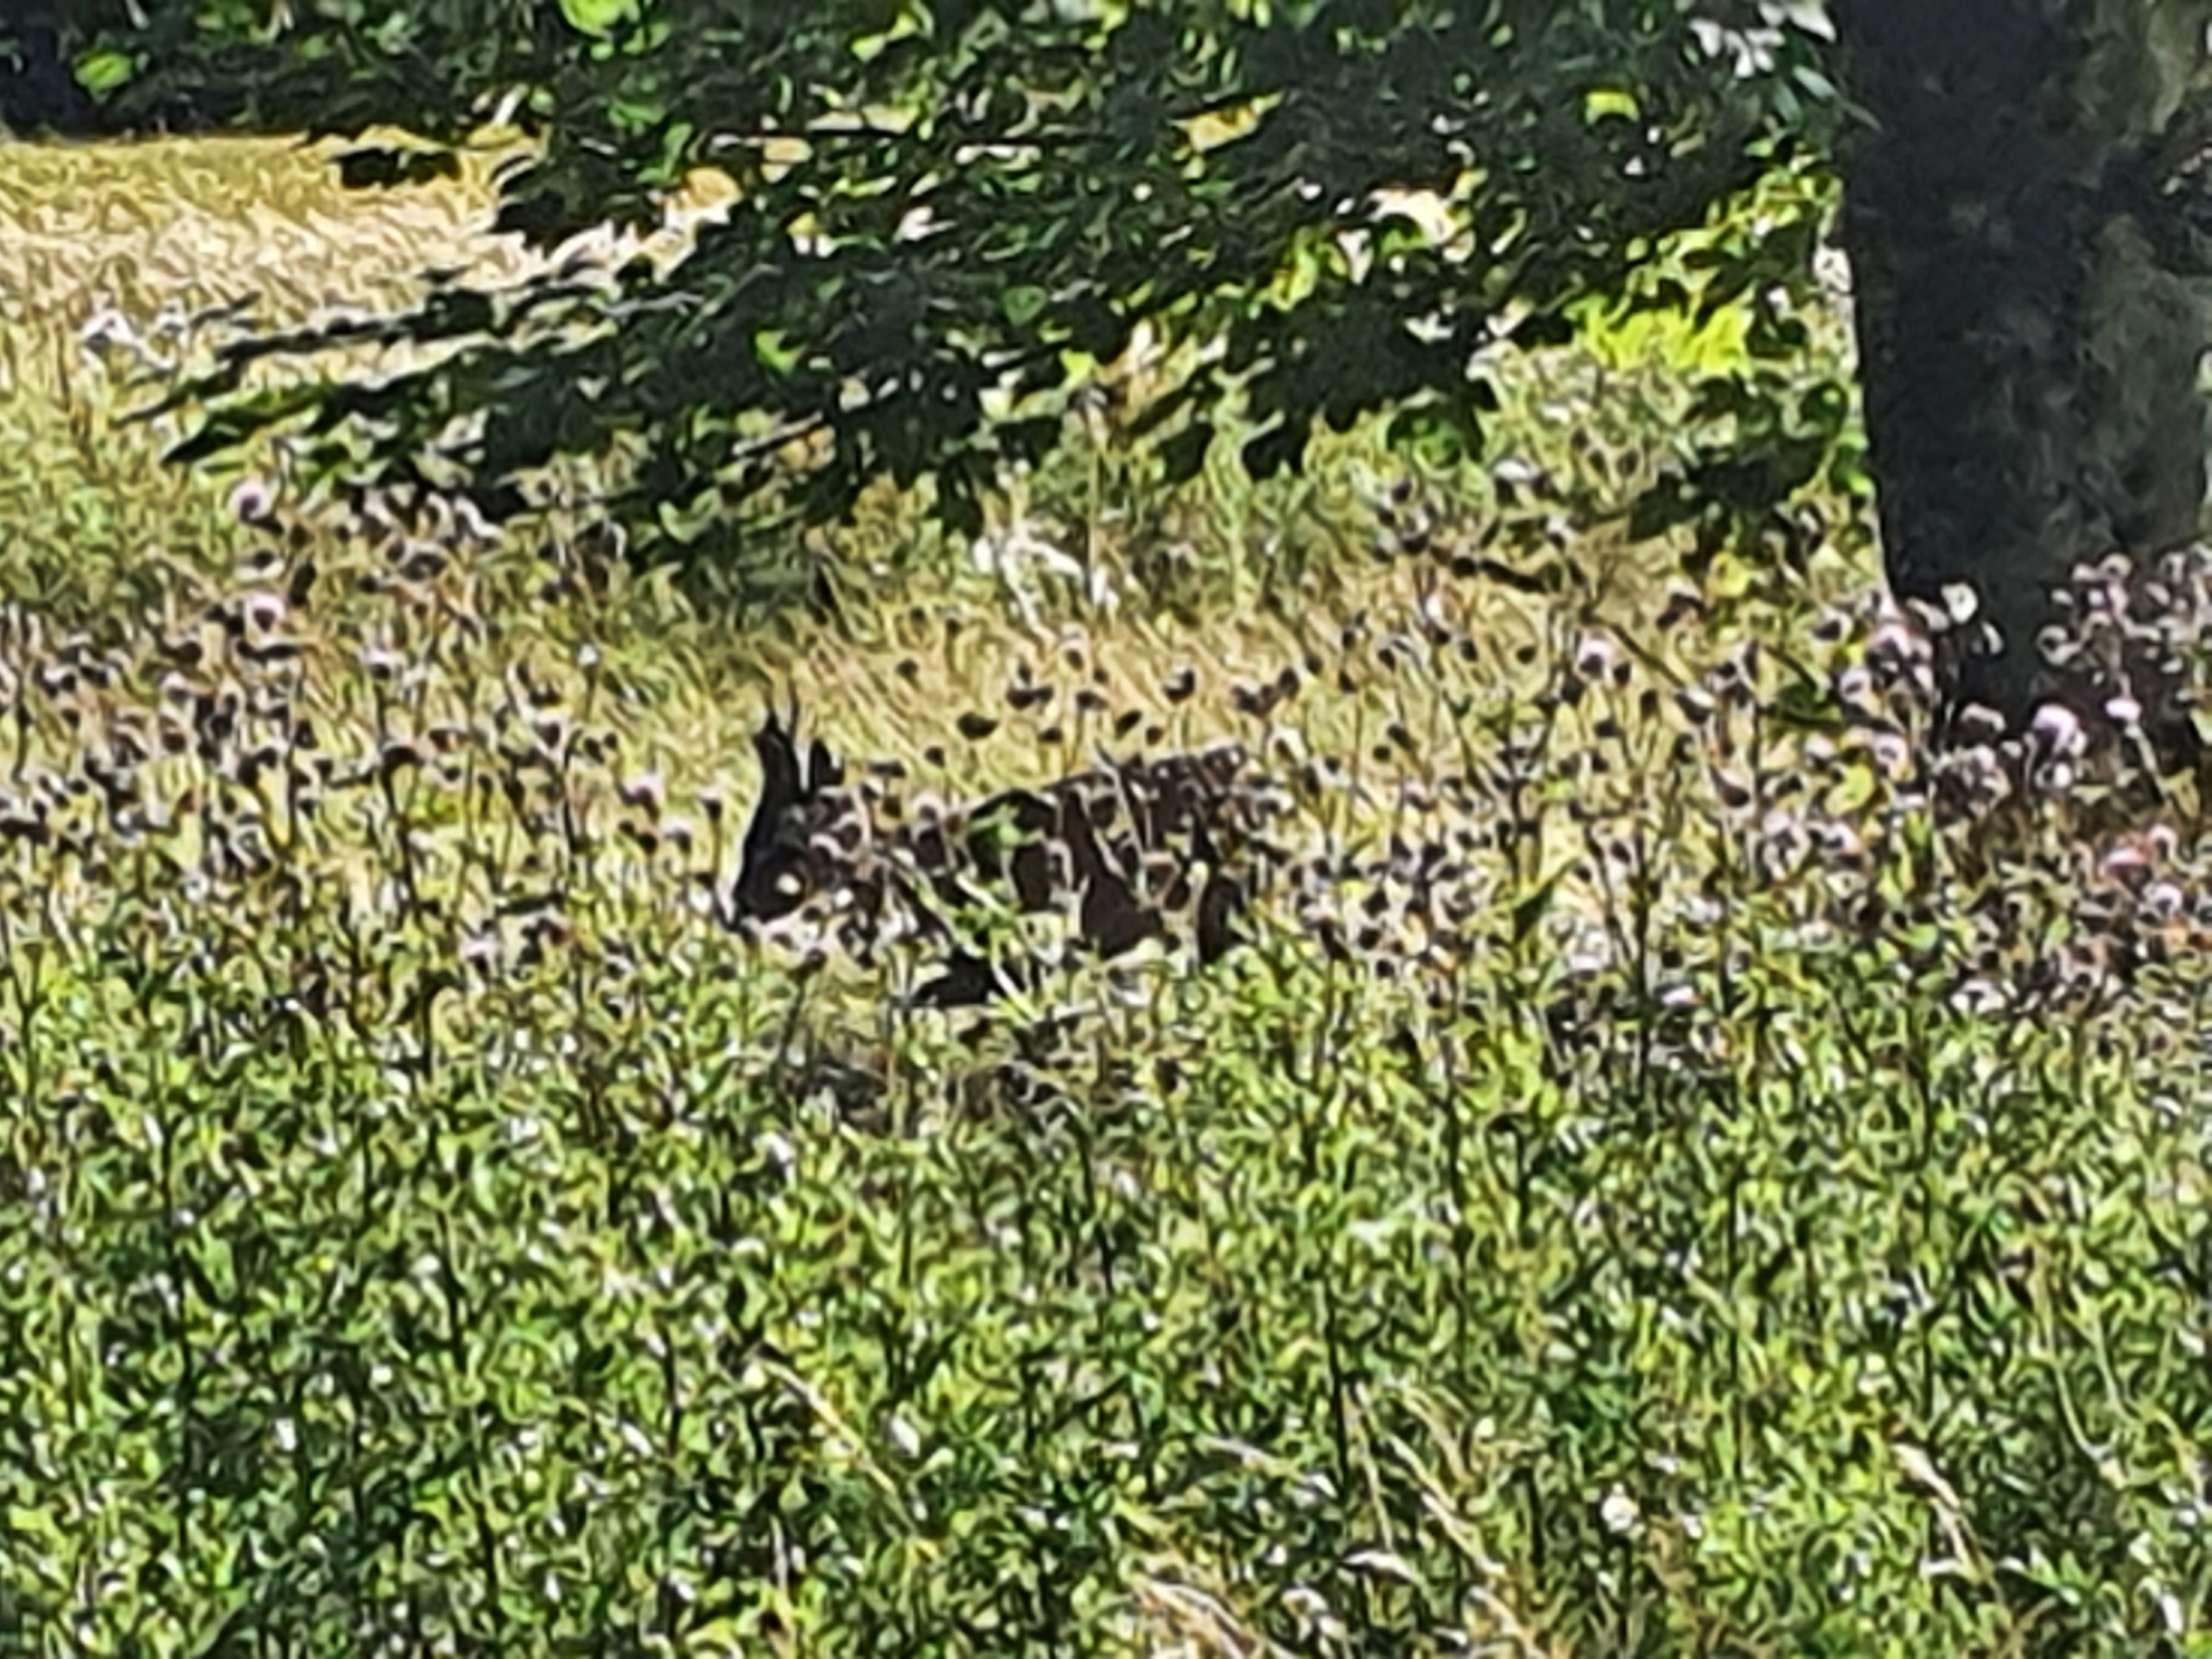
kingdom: Animalia
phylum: Chordata
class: Mammalia
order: Artiodactyla
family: Cervidae
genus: Capreolus
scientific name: Capreolus capreolus
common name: Rådyr
